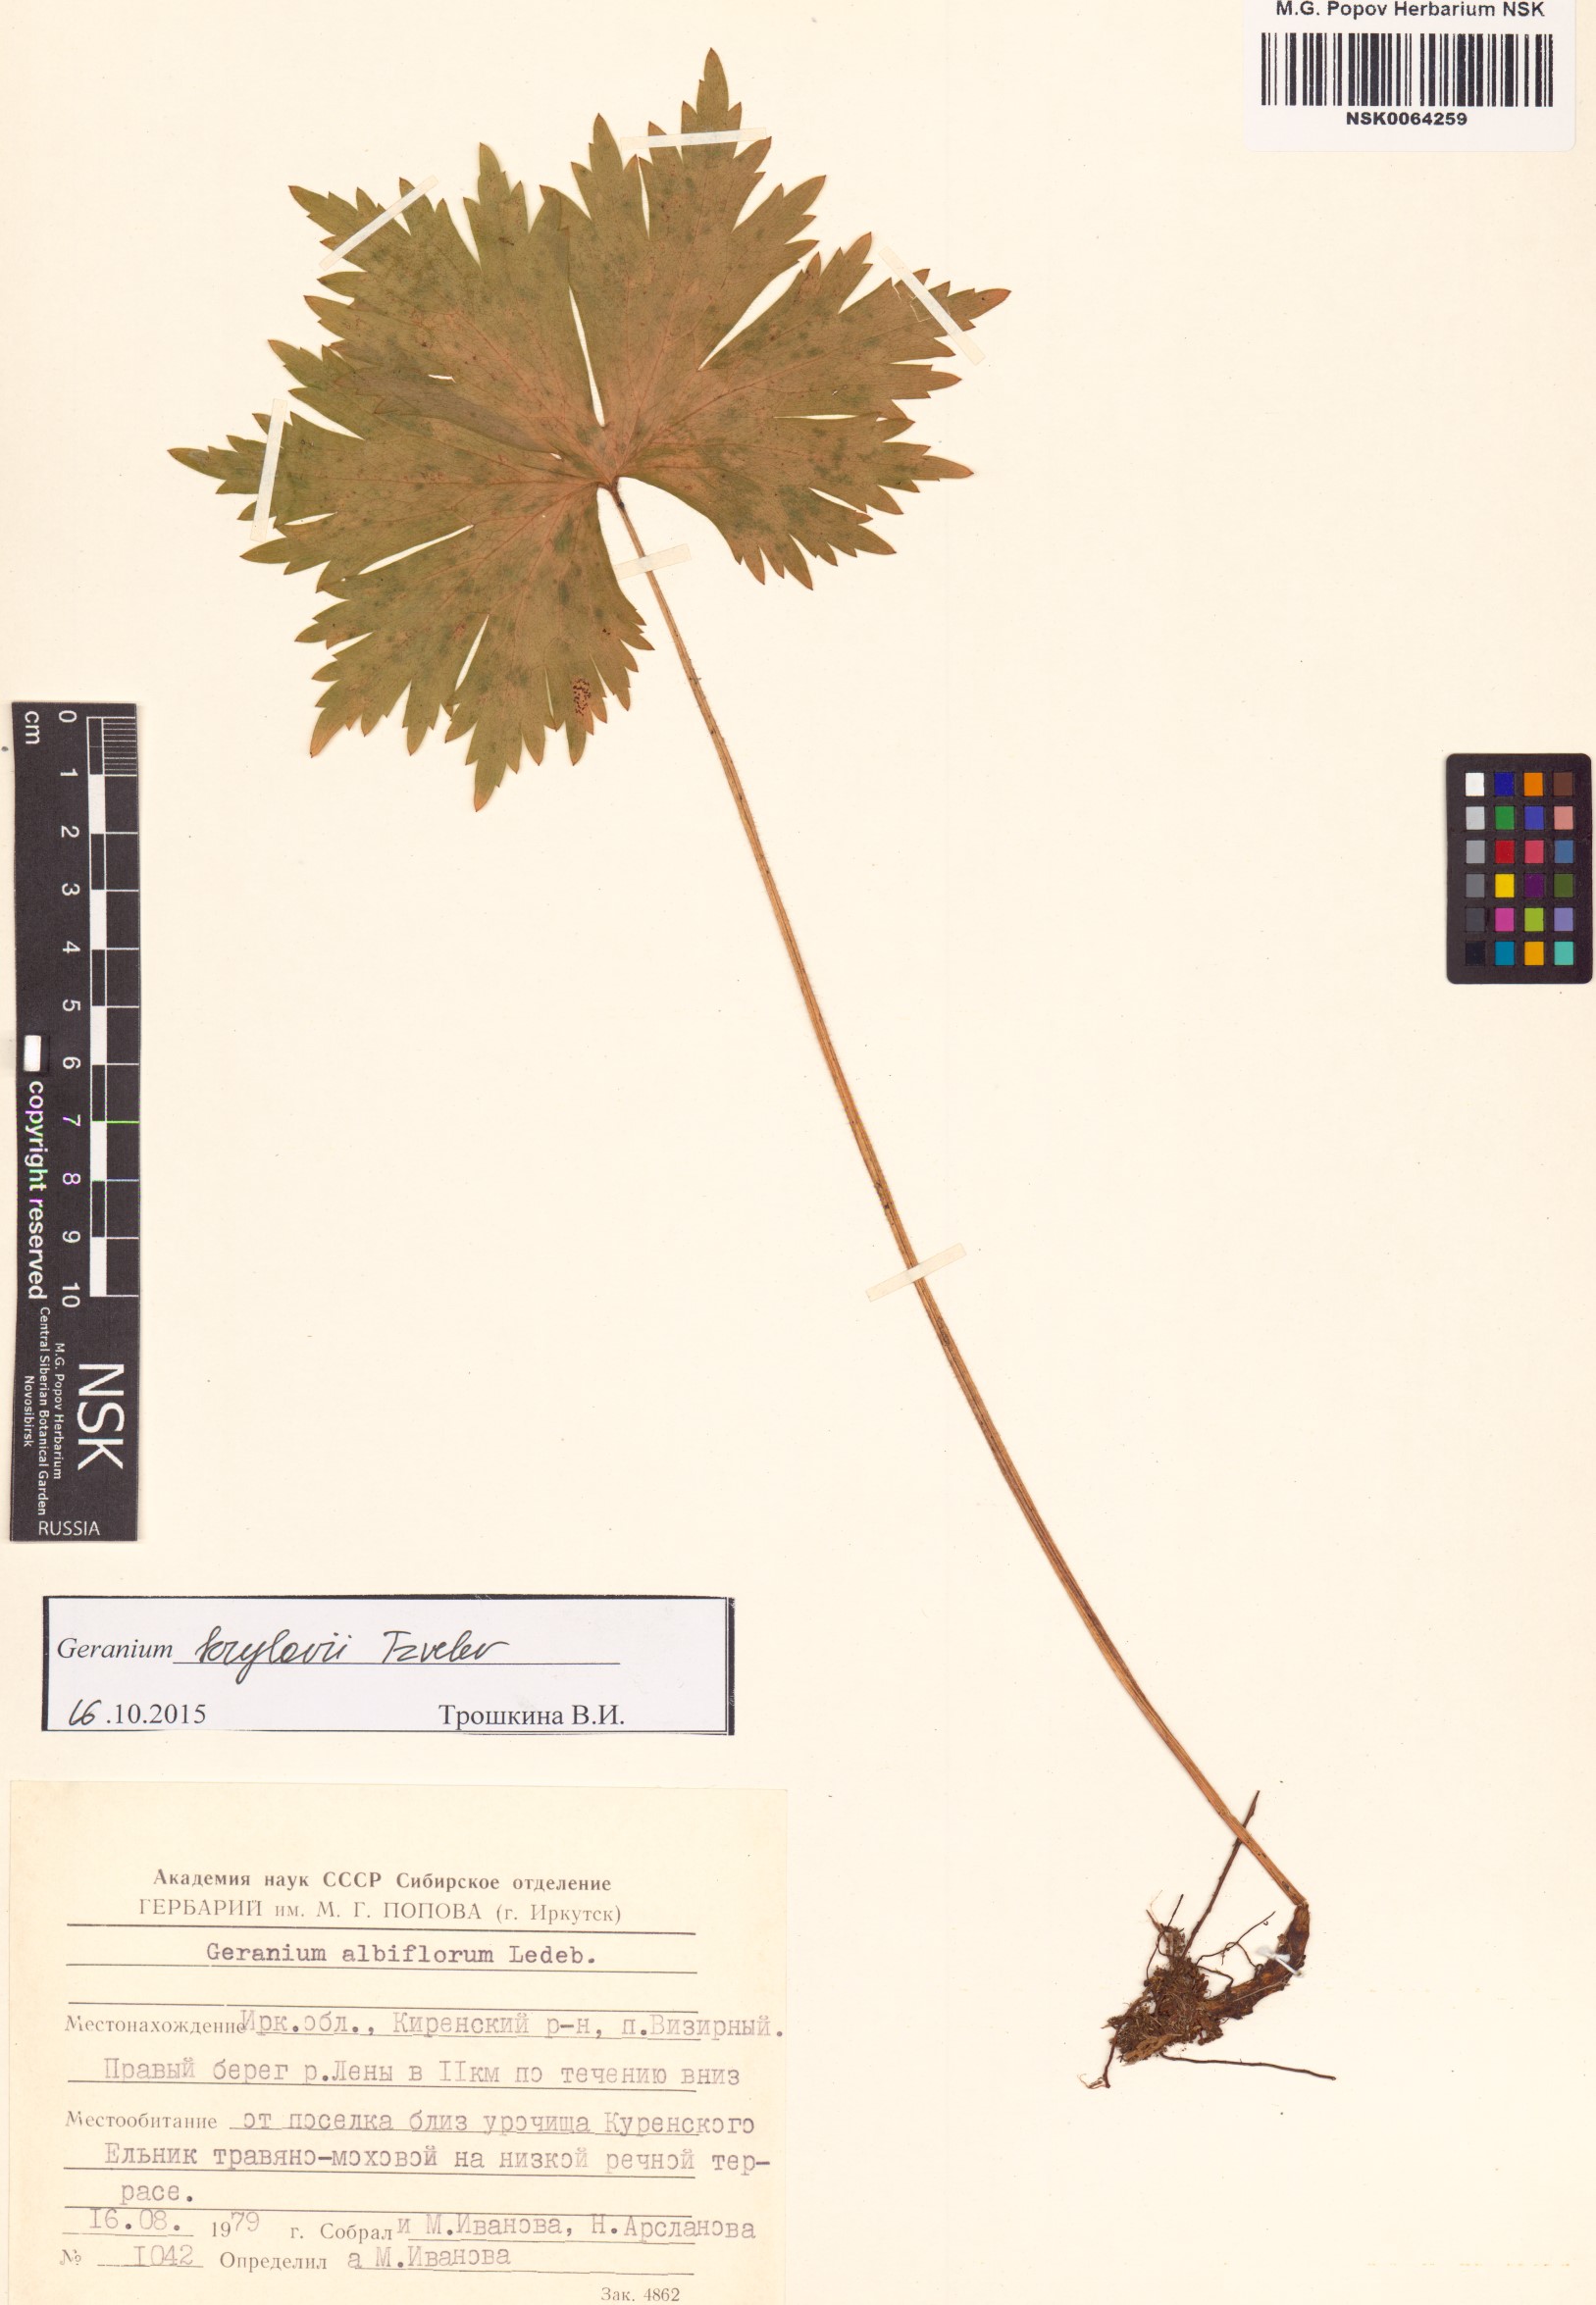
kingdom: Plantae
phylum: Tracheophyta
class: Magnoliopsida
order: Geraniales
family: Geraniaceae
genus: Geranium
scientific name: Geranium sylvaticum
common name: Wood crane's-bill
